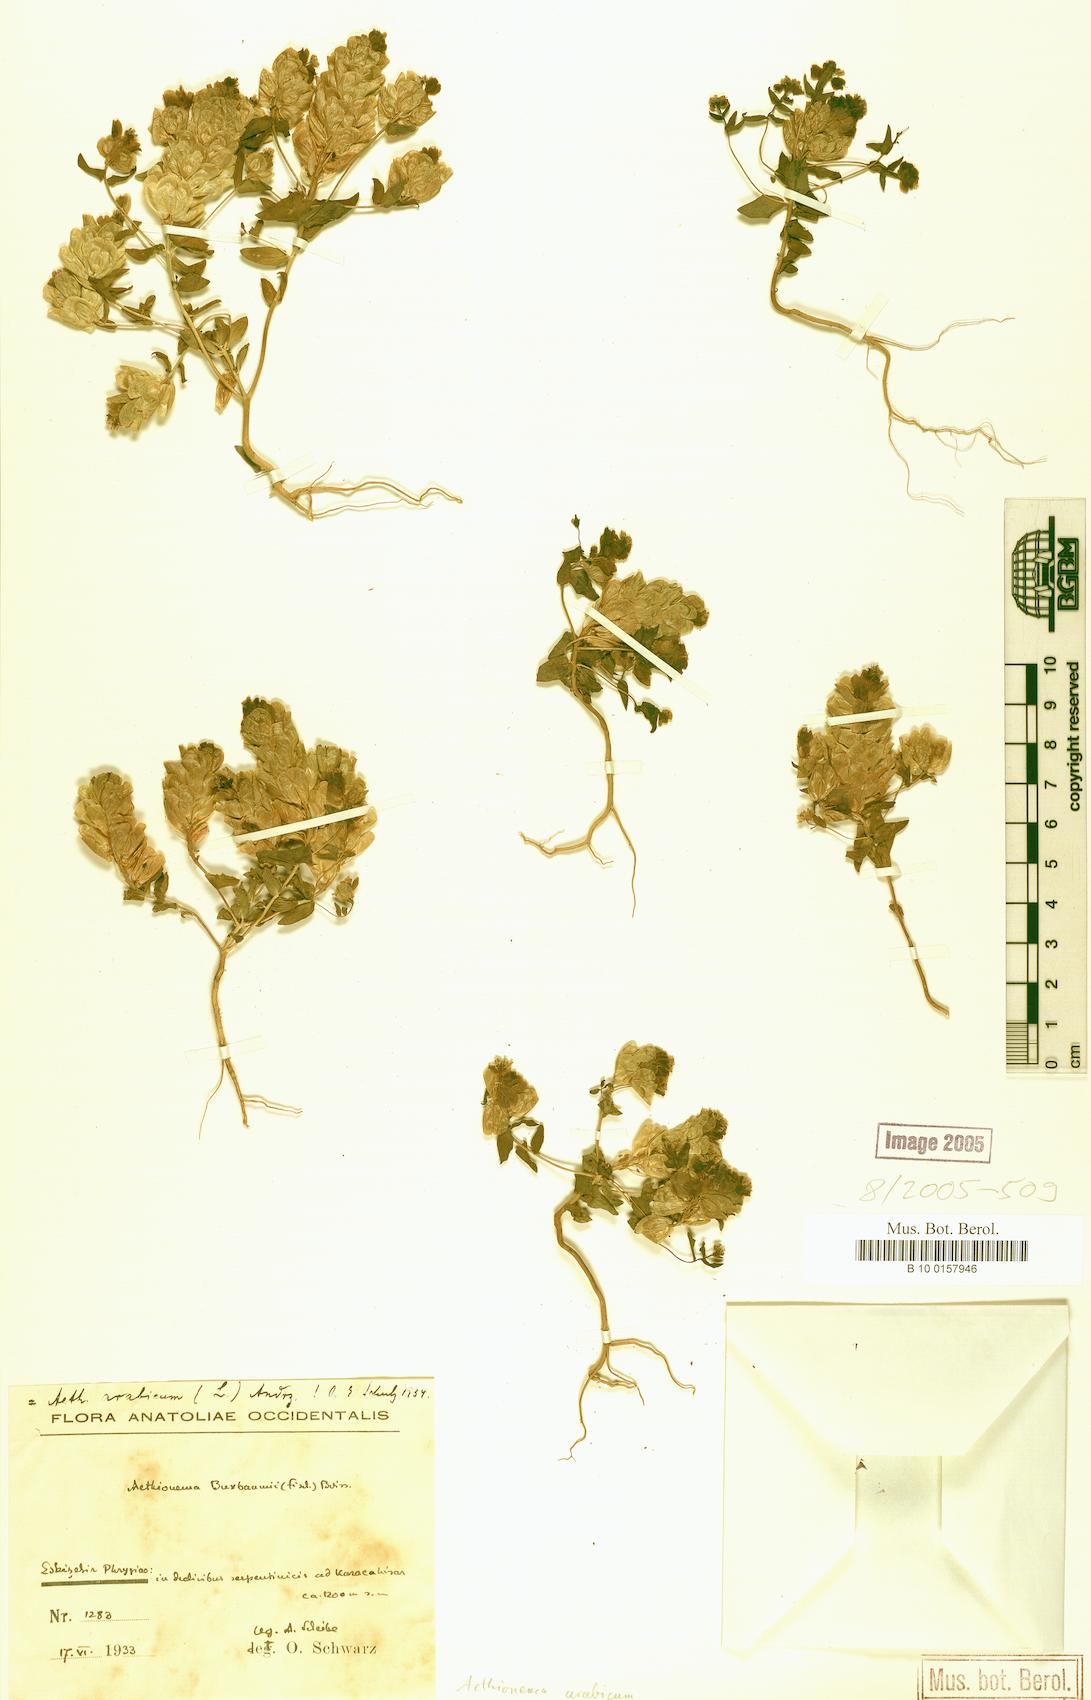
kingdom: Plantae
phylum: Tracheophyta
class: Magnoliopsida
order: Brassicales
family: Brassicaceae
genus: Aethionema
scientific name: Aethionema arabicum
